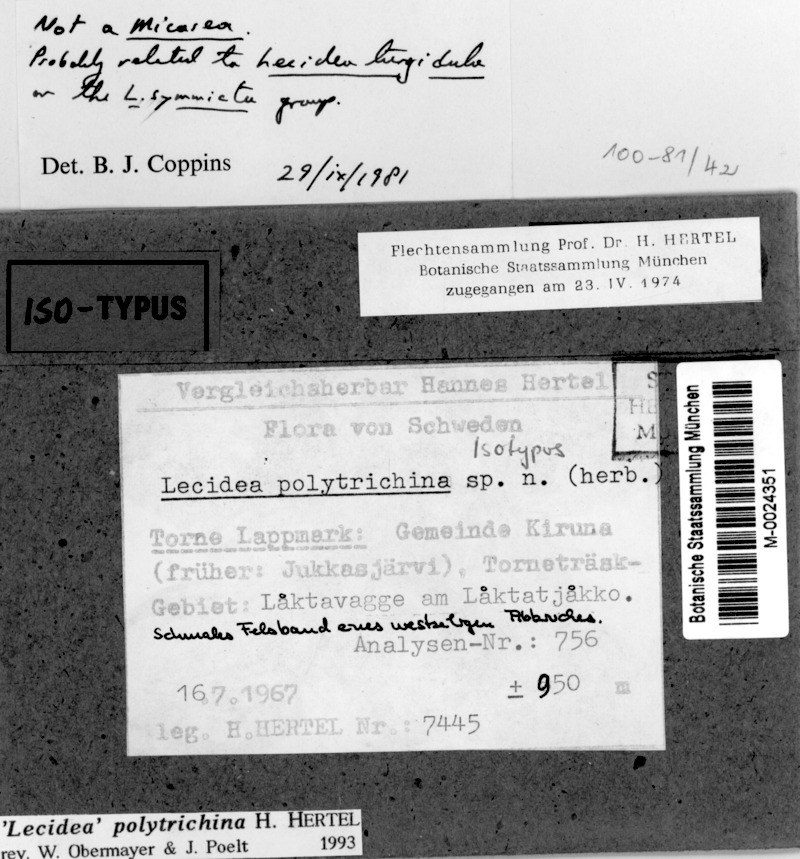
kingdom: Fungi
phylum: Ascomycota
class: Lecanoromycetes
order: Lecideales
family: Lecideaceae
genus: Lecidea
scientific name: Lecidea polytrichina
